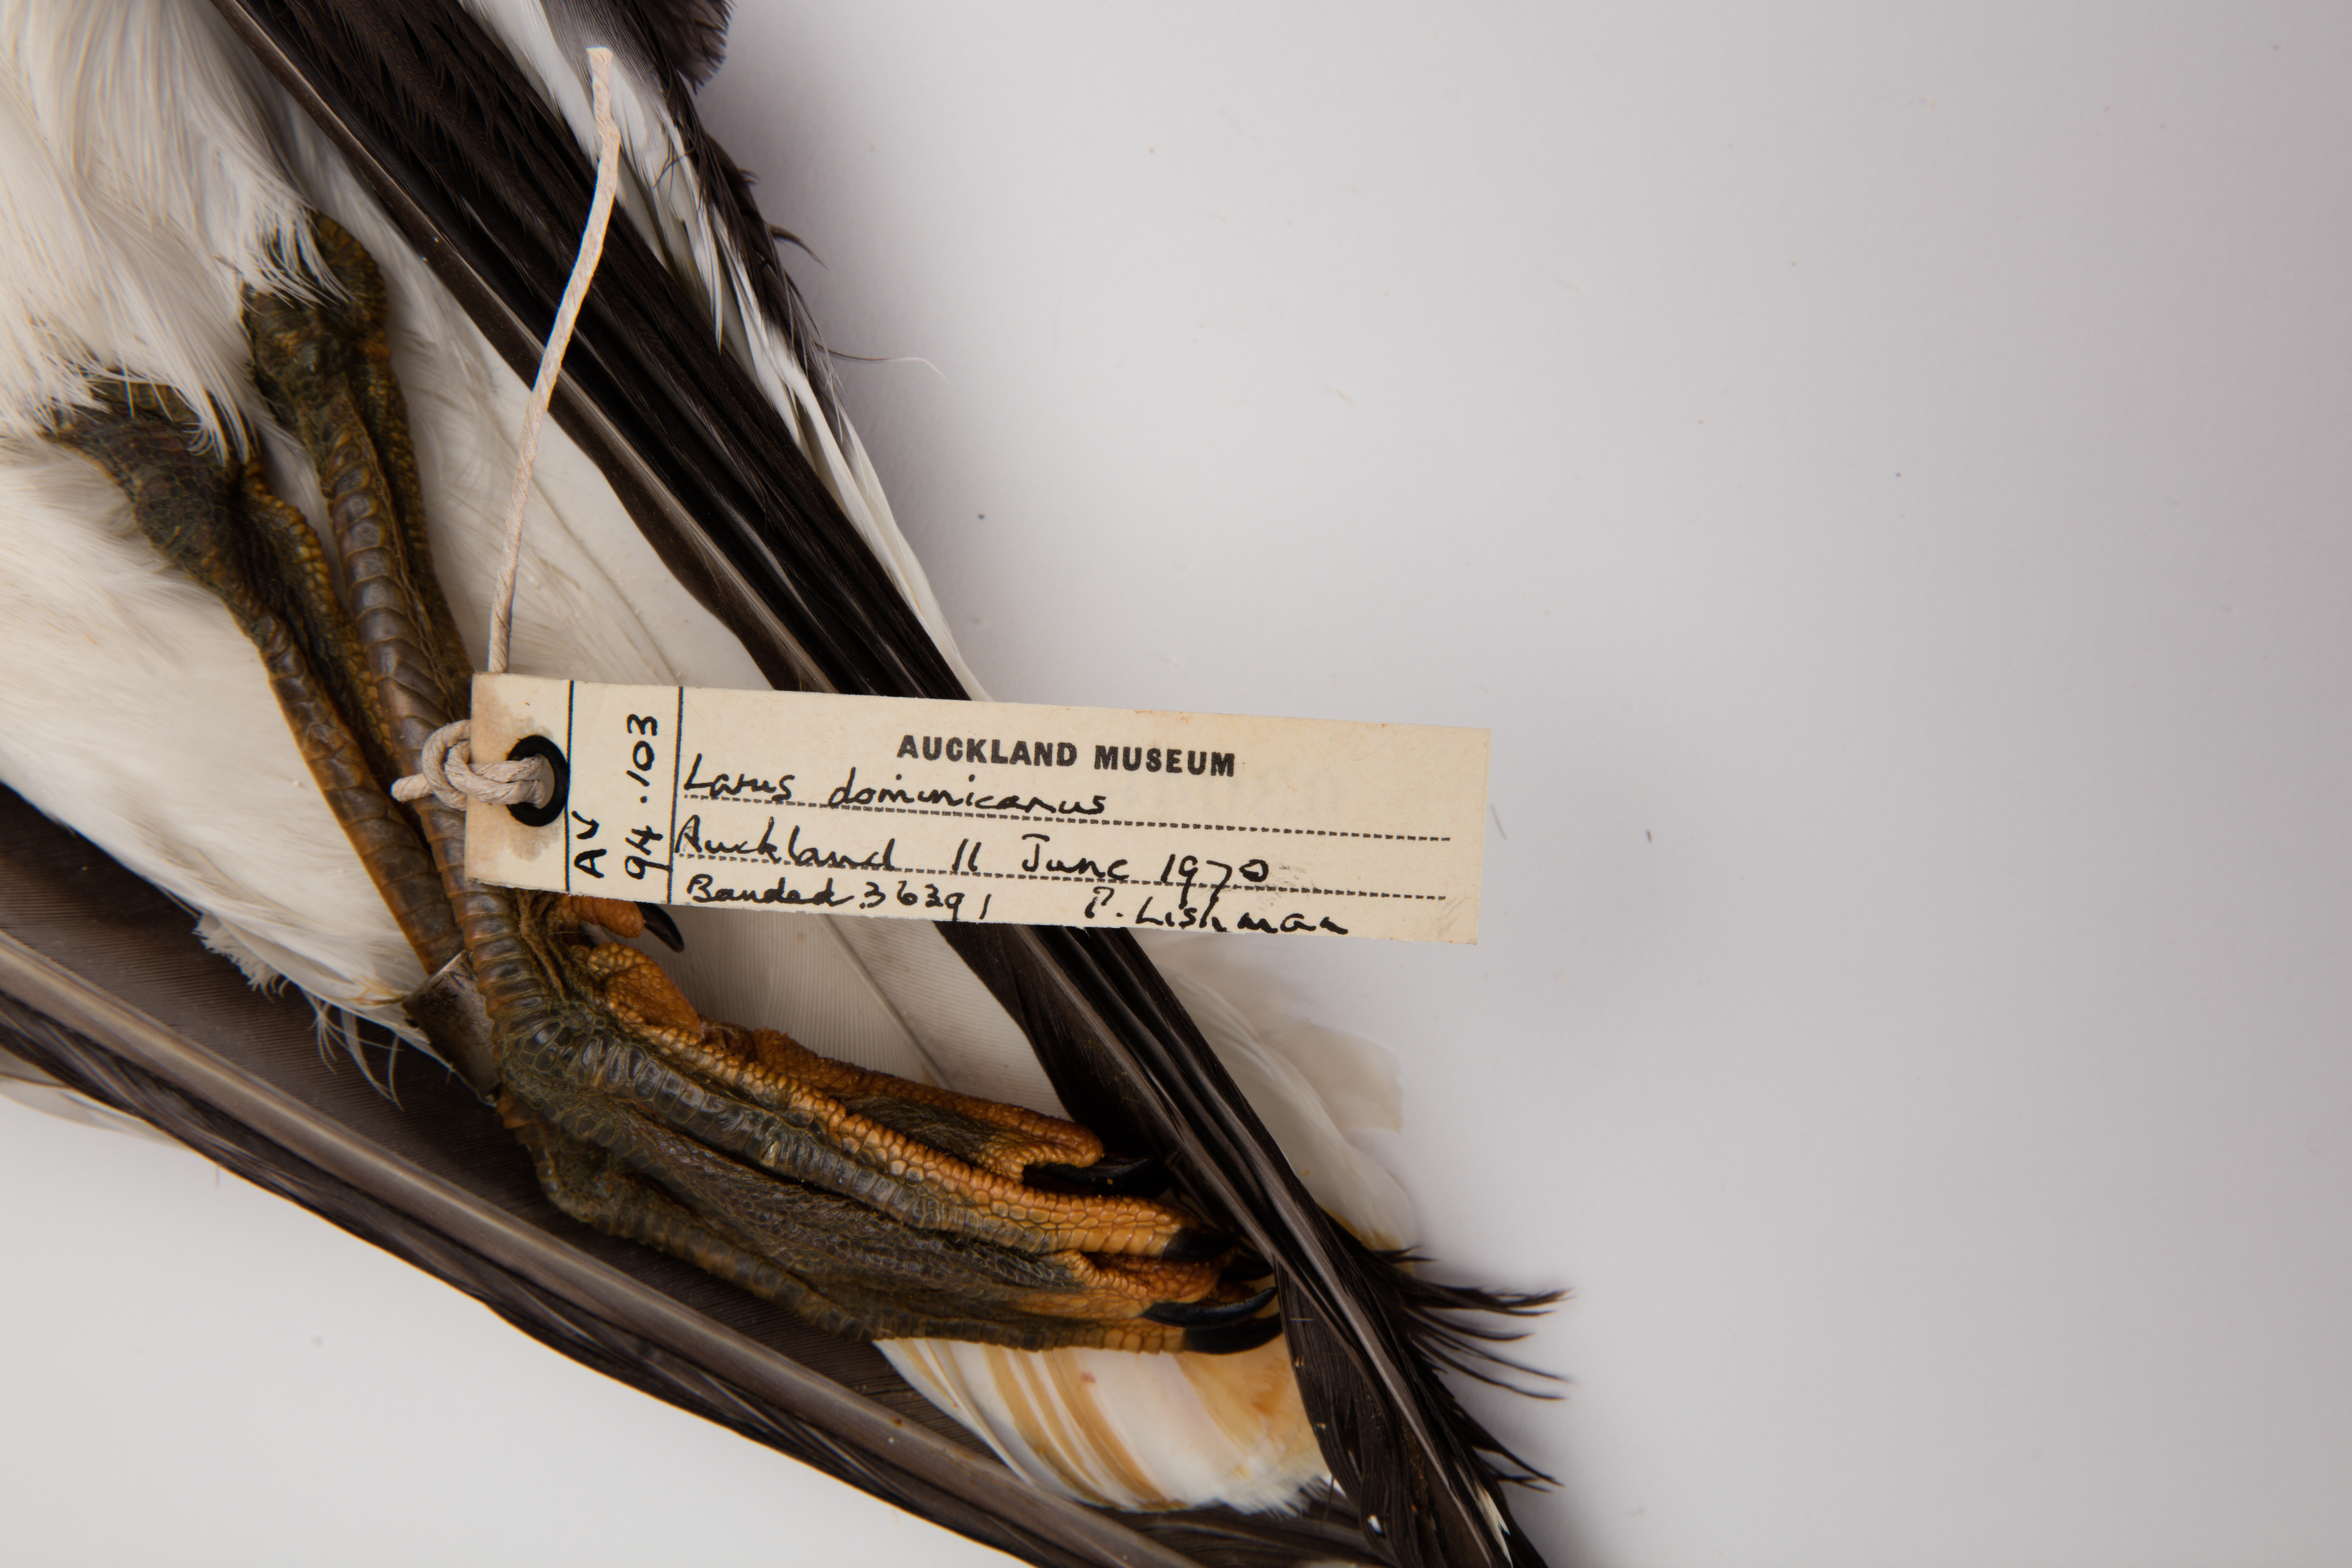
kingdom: Animalia
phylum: Chordata
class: Aves
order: Charadriiformes
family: Laridae
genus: Larus
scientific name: Larus dominicanus
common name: Kelp gull
